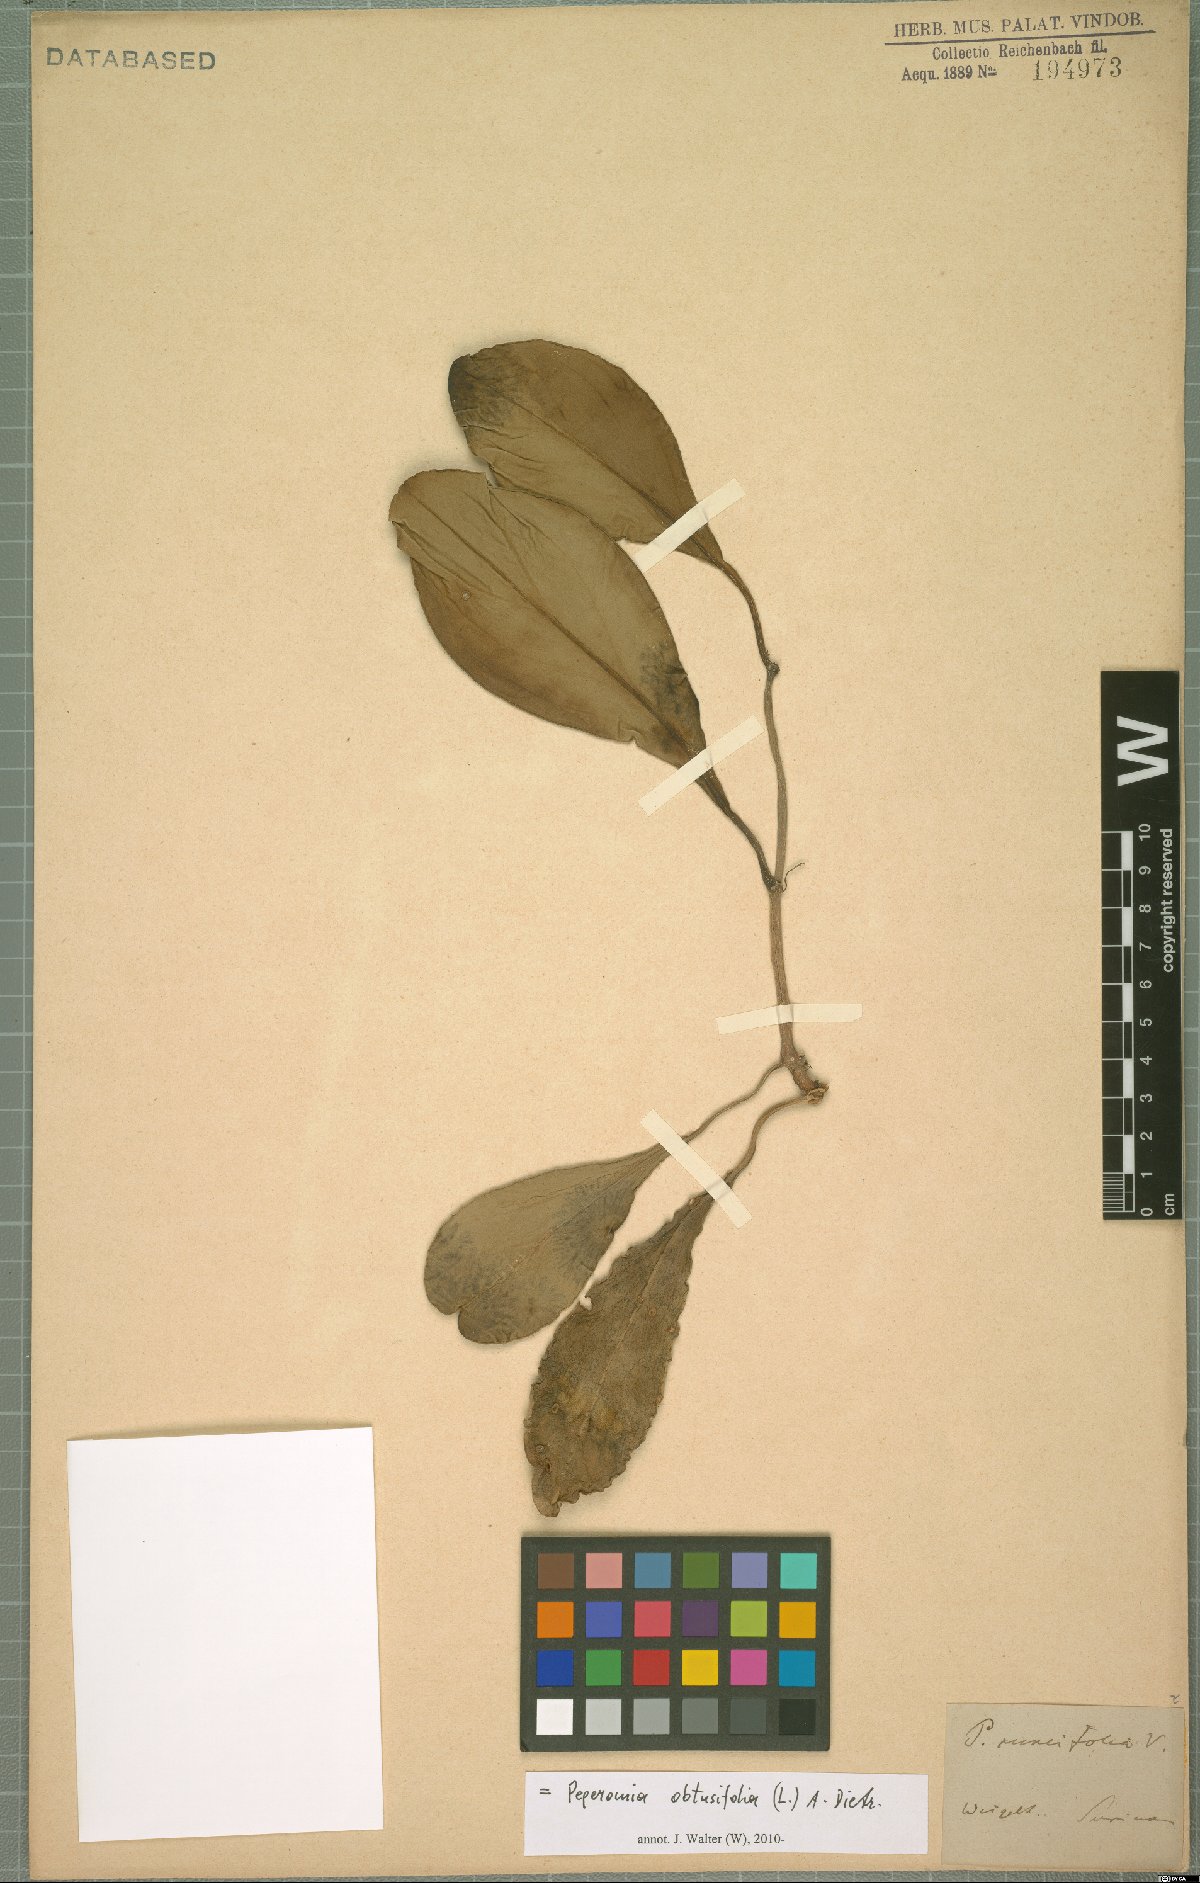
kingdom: Plantae
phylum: Tracheophyta
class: Magnoliopsida
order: Piperales
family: Piperaceae
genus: Peperomia
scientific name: Peperomia obtusifolia
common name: Baby rubberplant
